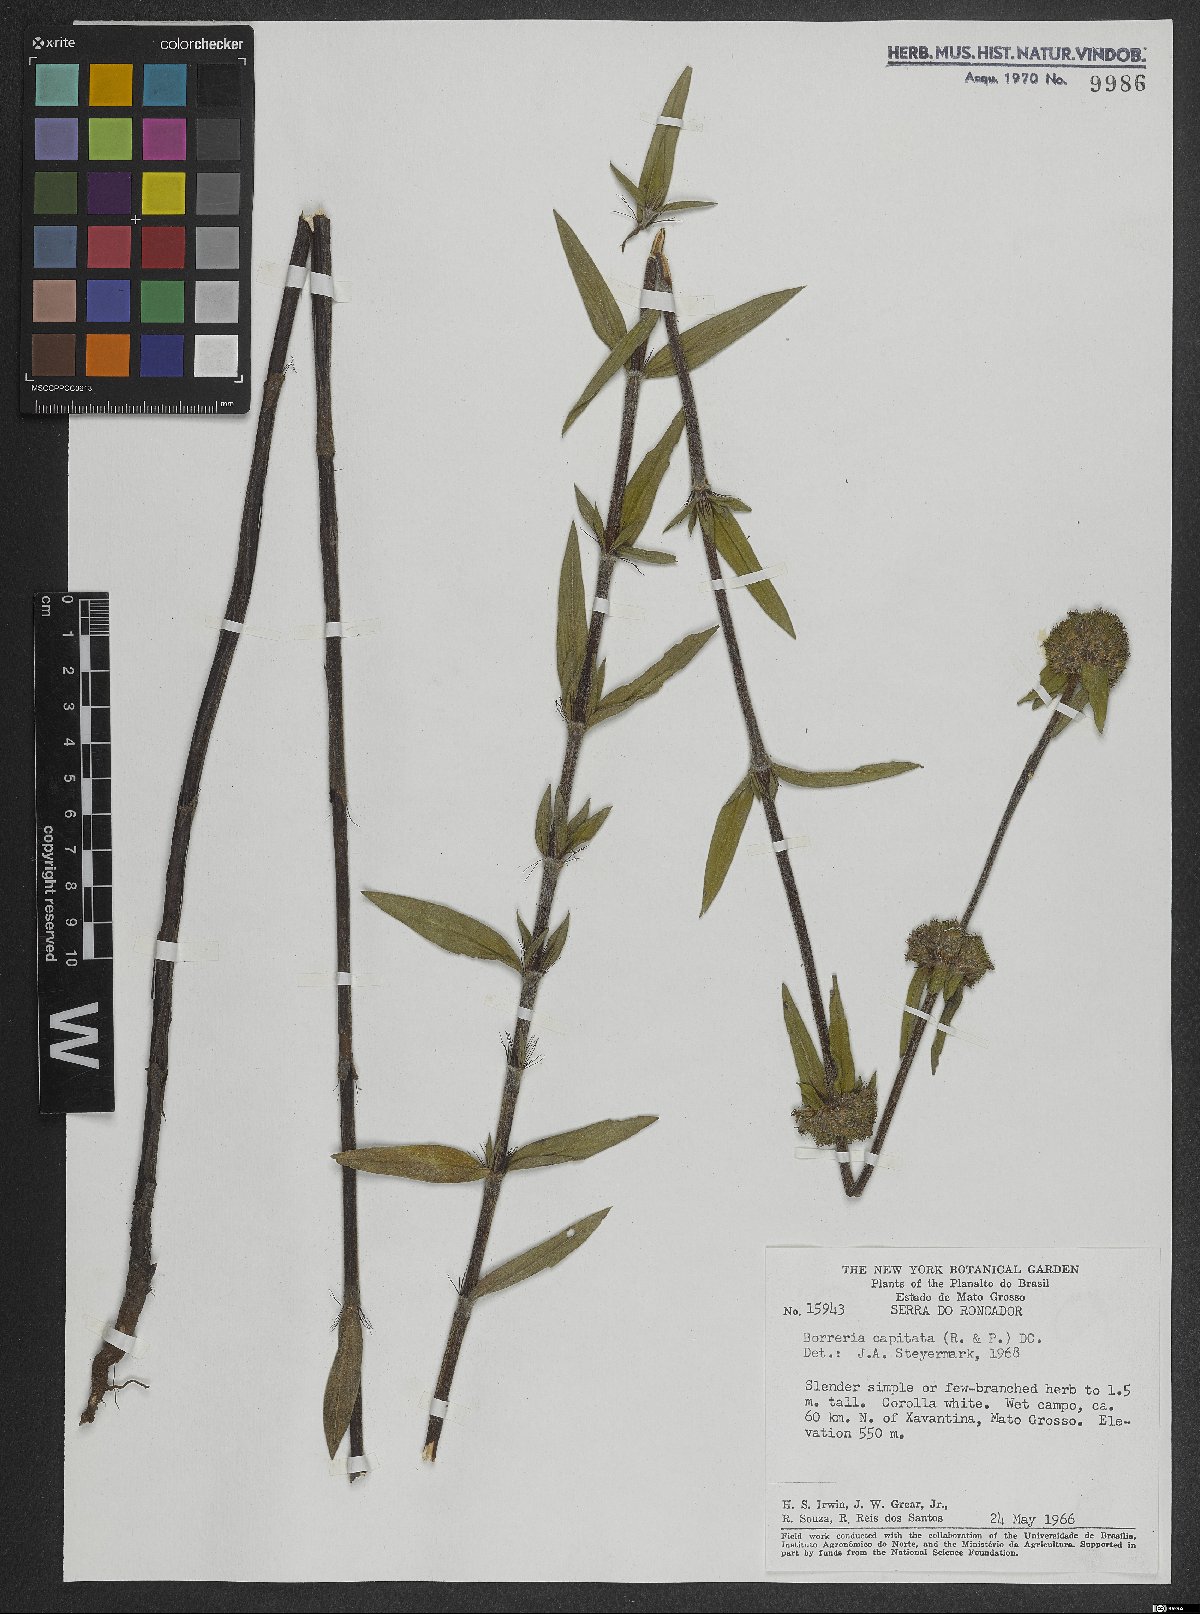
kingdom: Plantae
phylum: Tracheophyta
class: Magnoliopsida
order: Gentianales
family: Rubiaceae
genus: Spermacoce
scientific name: Spermacoce capitata
